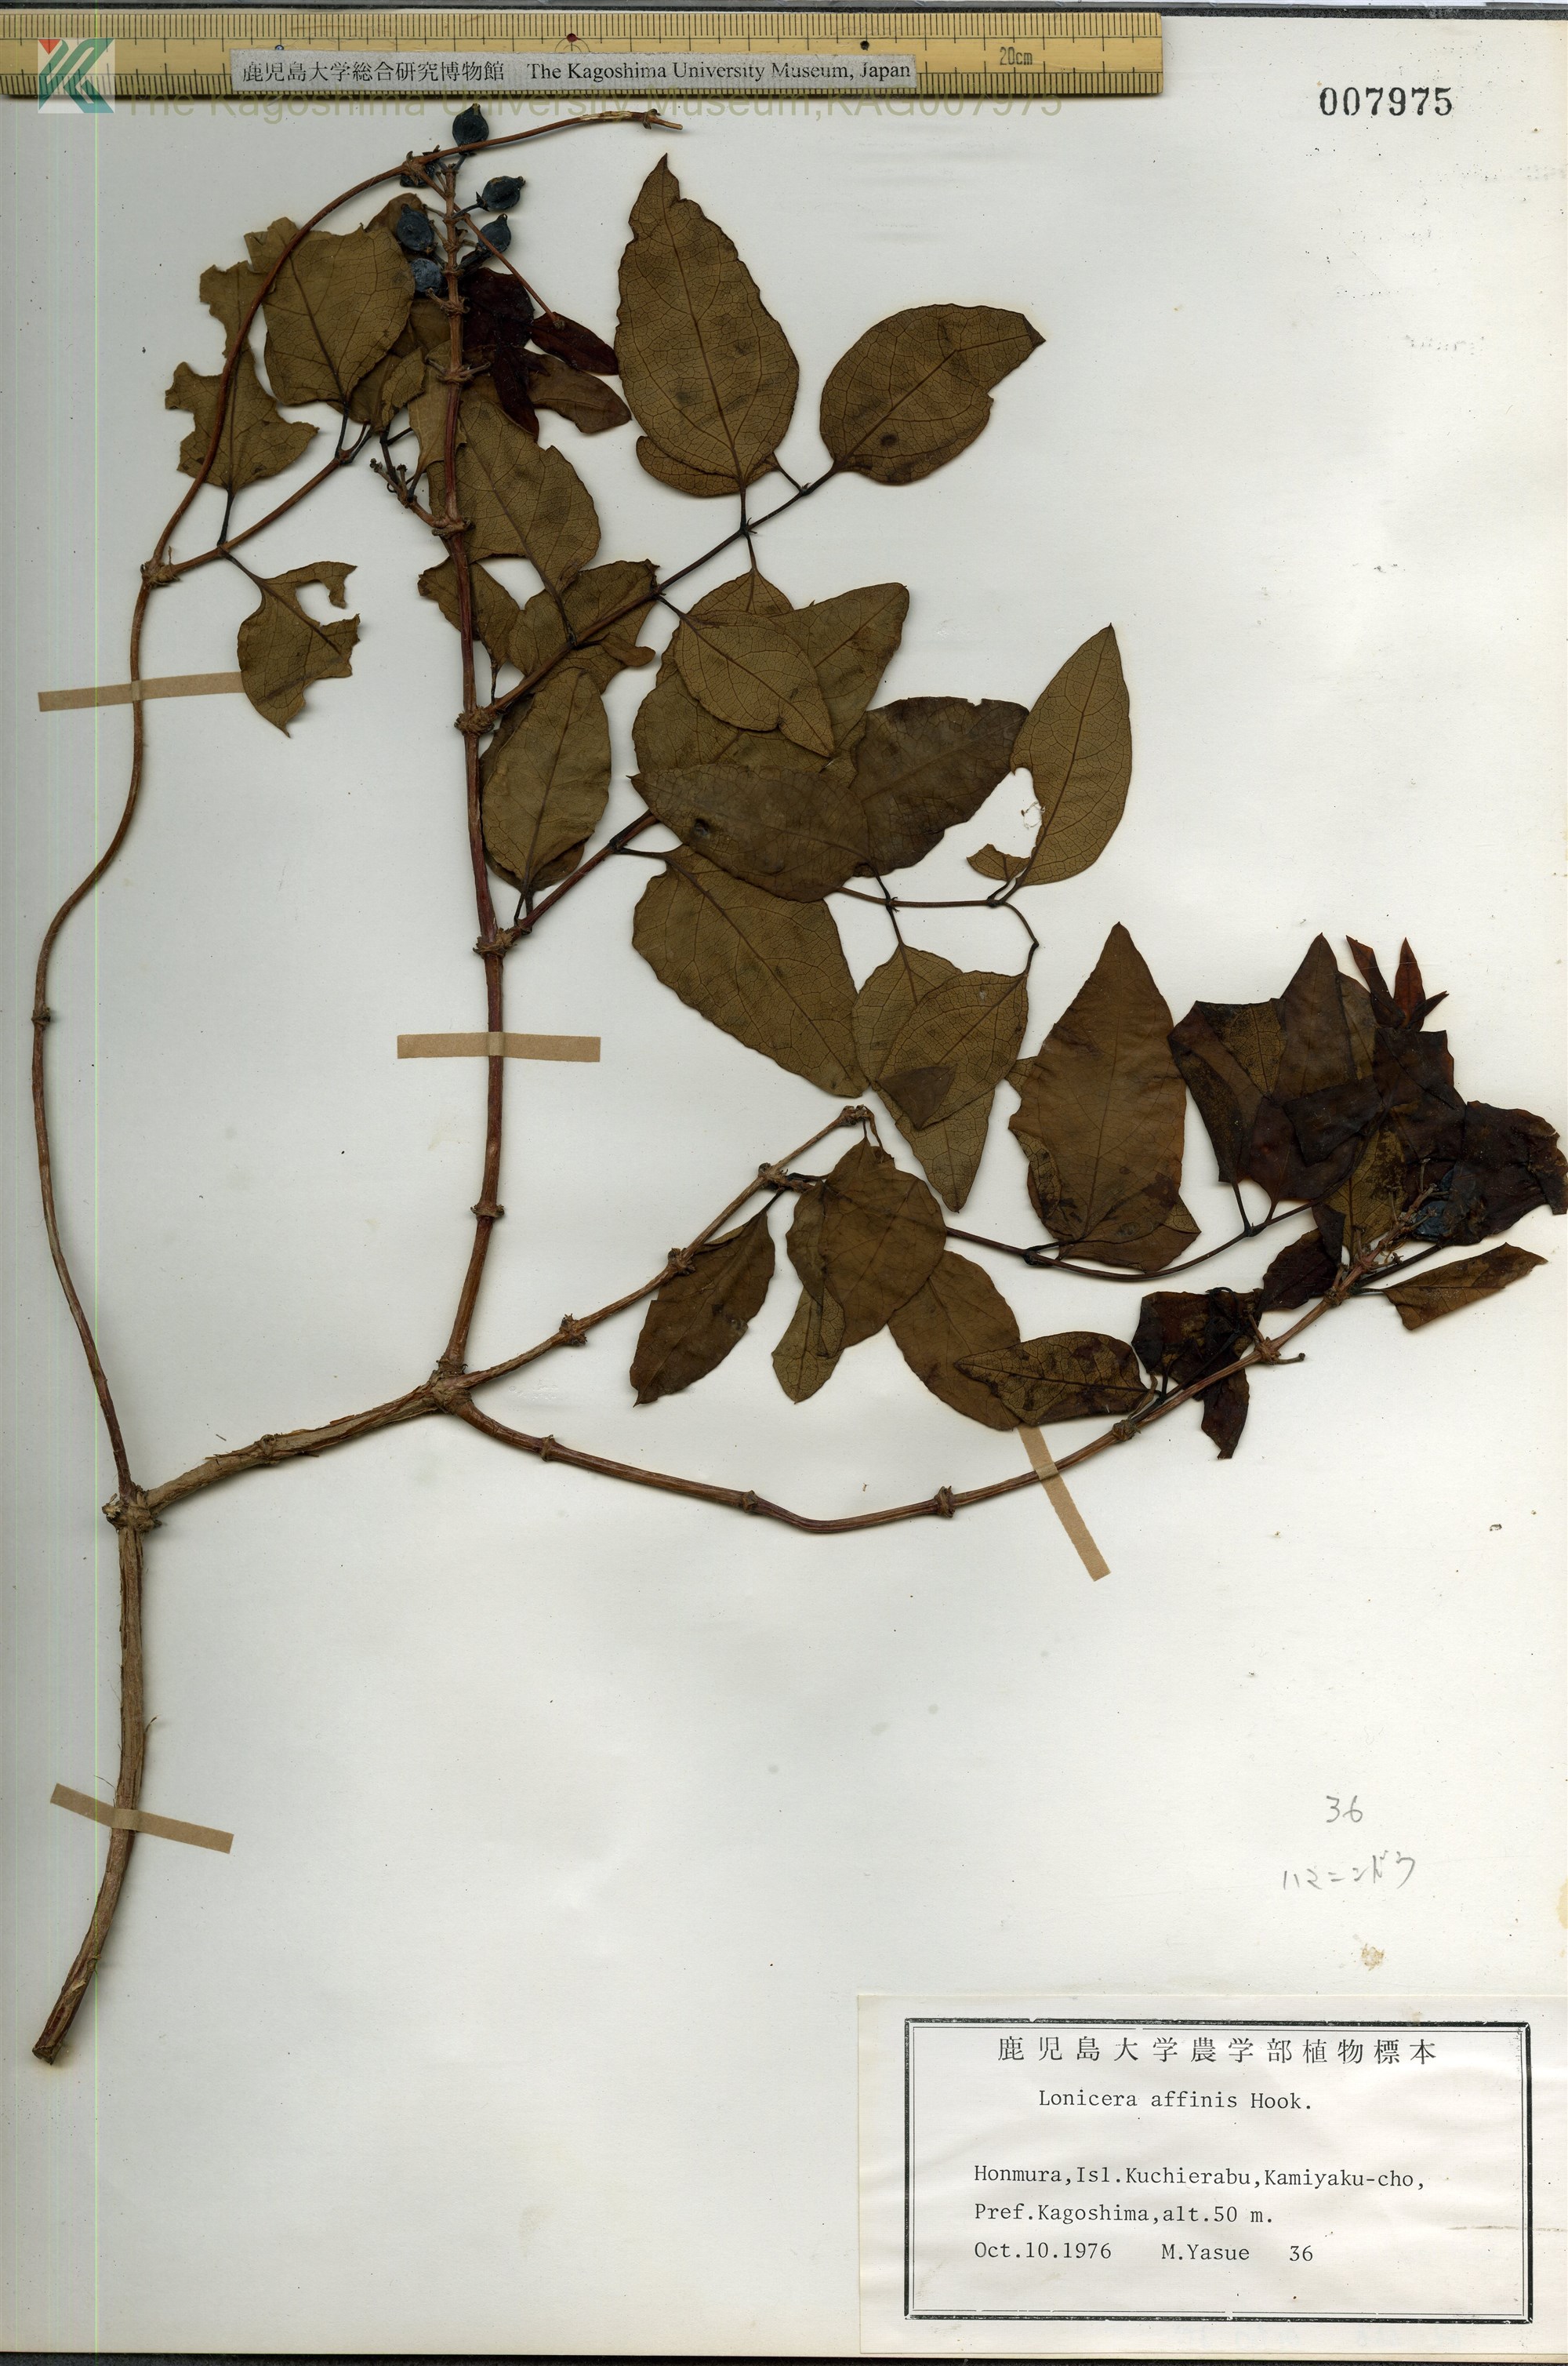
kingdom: Plantae
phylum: Tracheophyta
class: Magnoliopsida
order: Dipsacales
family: Caprifoliaceae
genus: Lonicera
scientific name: Lonicera affinis
